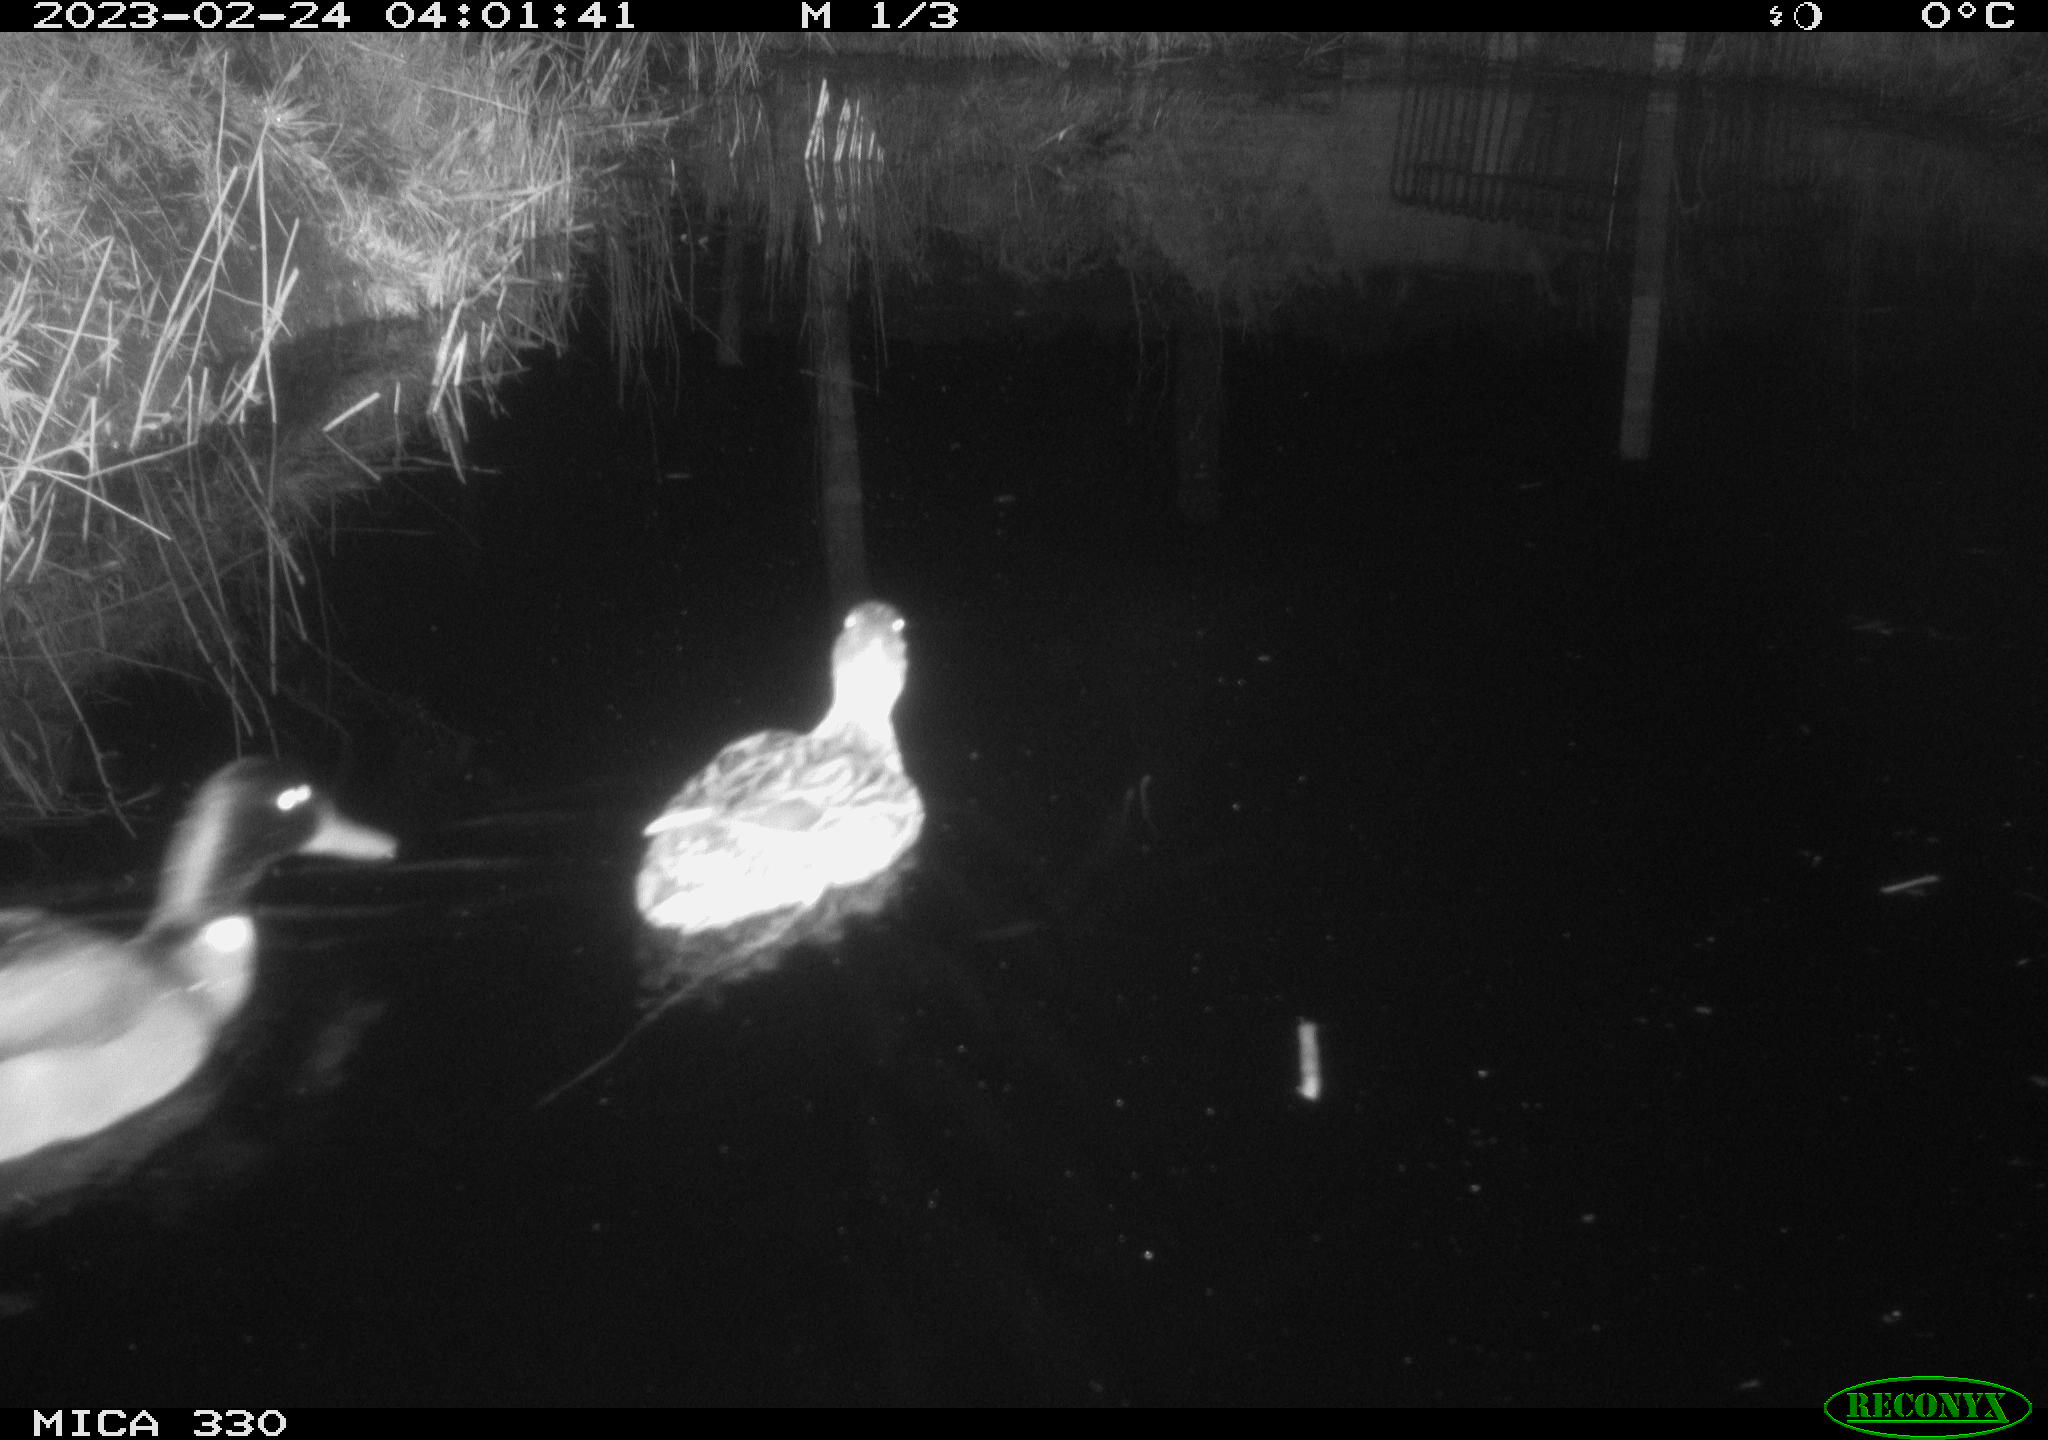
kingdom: Animalia
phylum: Chordata
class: Aves
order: Anseriformes
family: Anatidae
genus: Anas
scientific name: Anas
